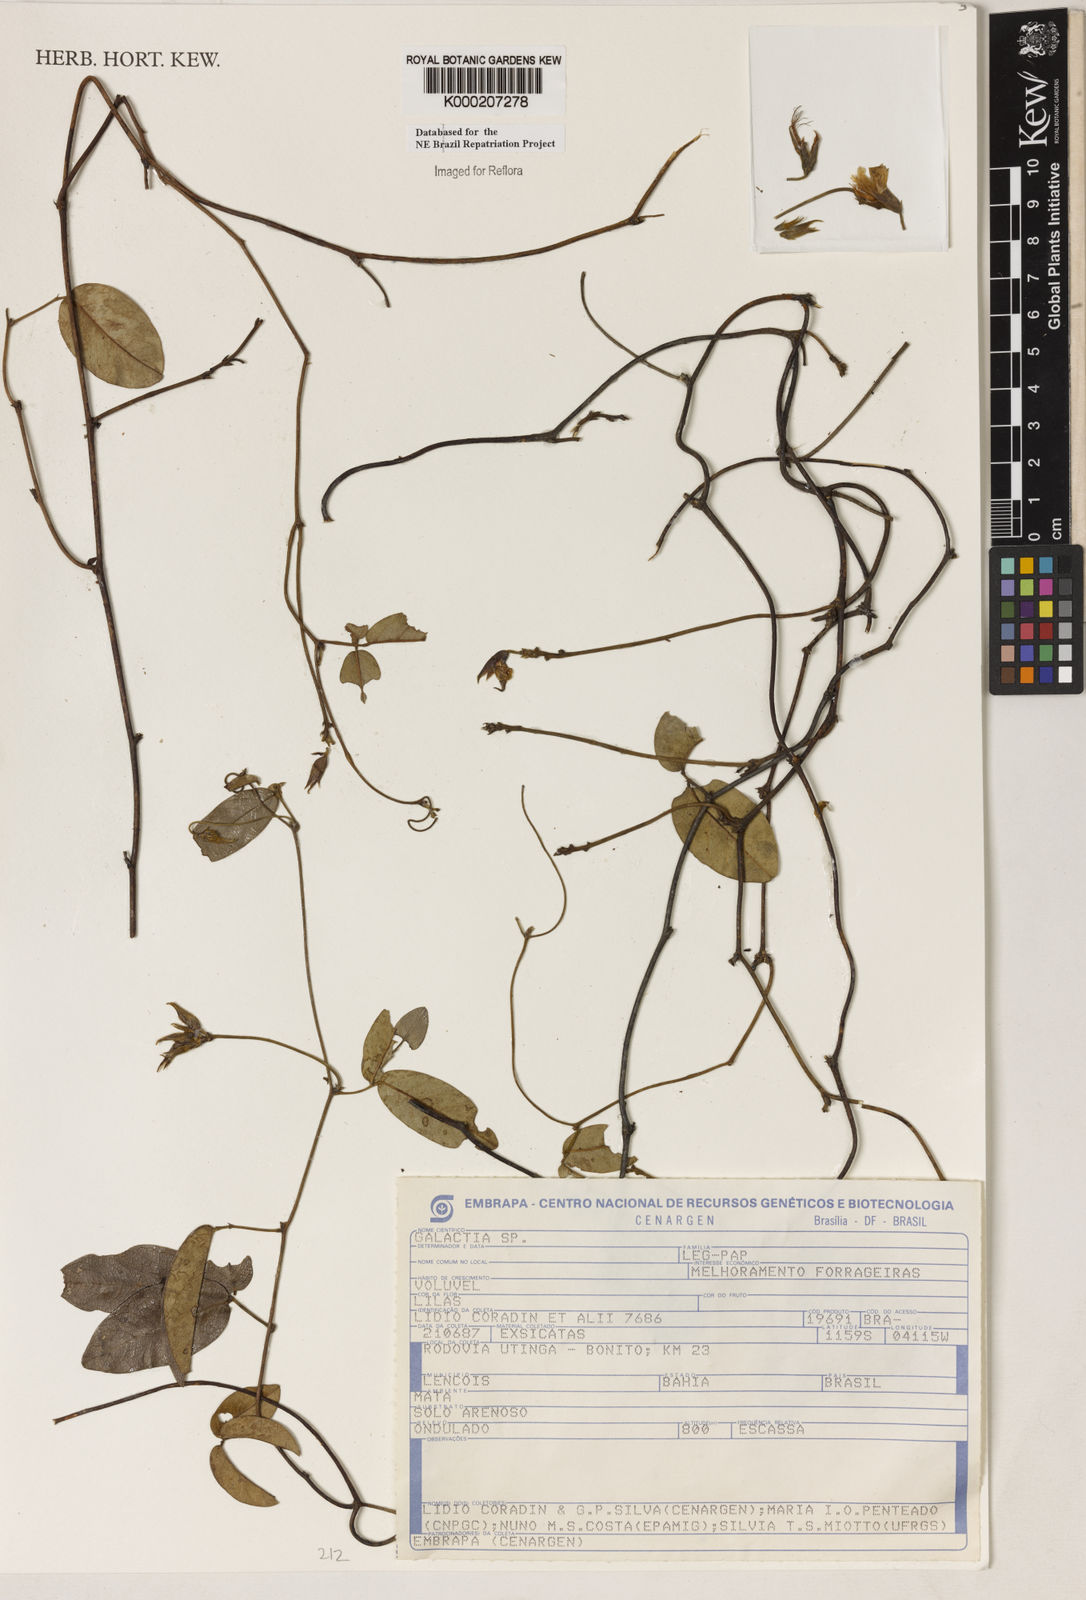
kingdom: Plantae
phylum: Tracheophyta
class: Magnoliopsida
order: Fabales
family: Fabaceae
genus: Galactia
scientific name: Galactia
